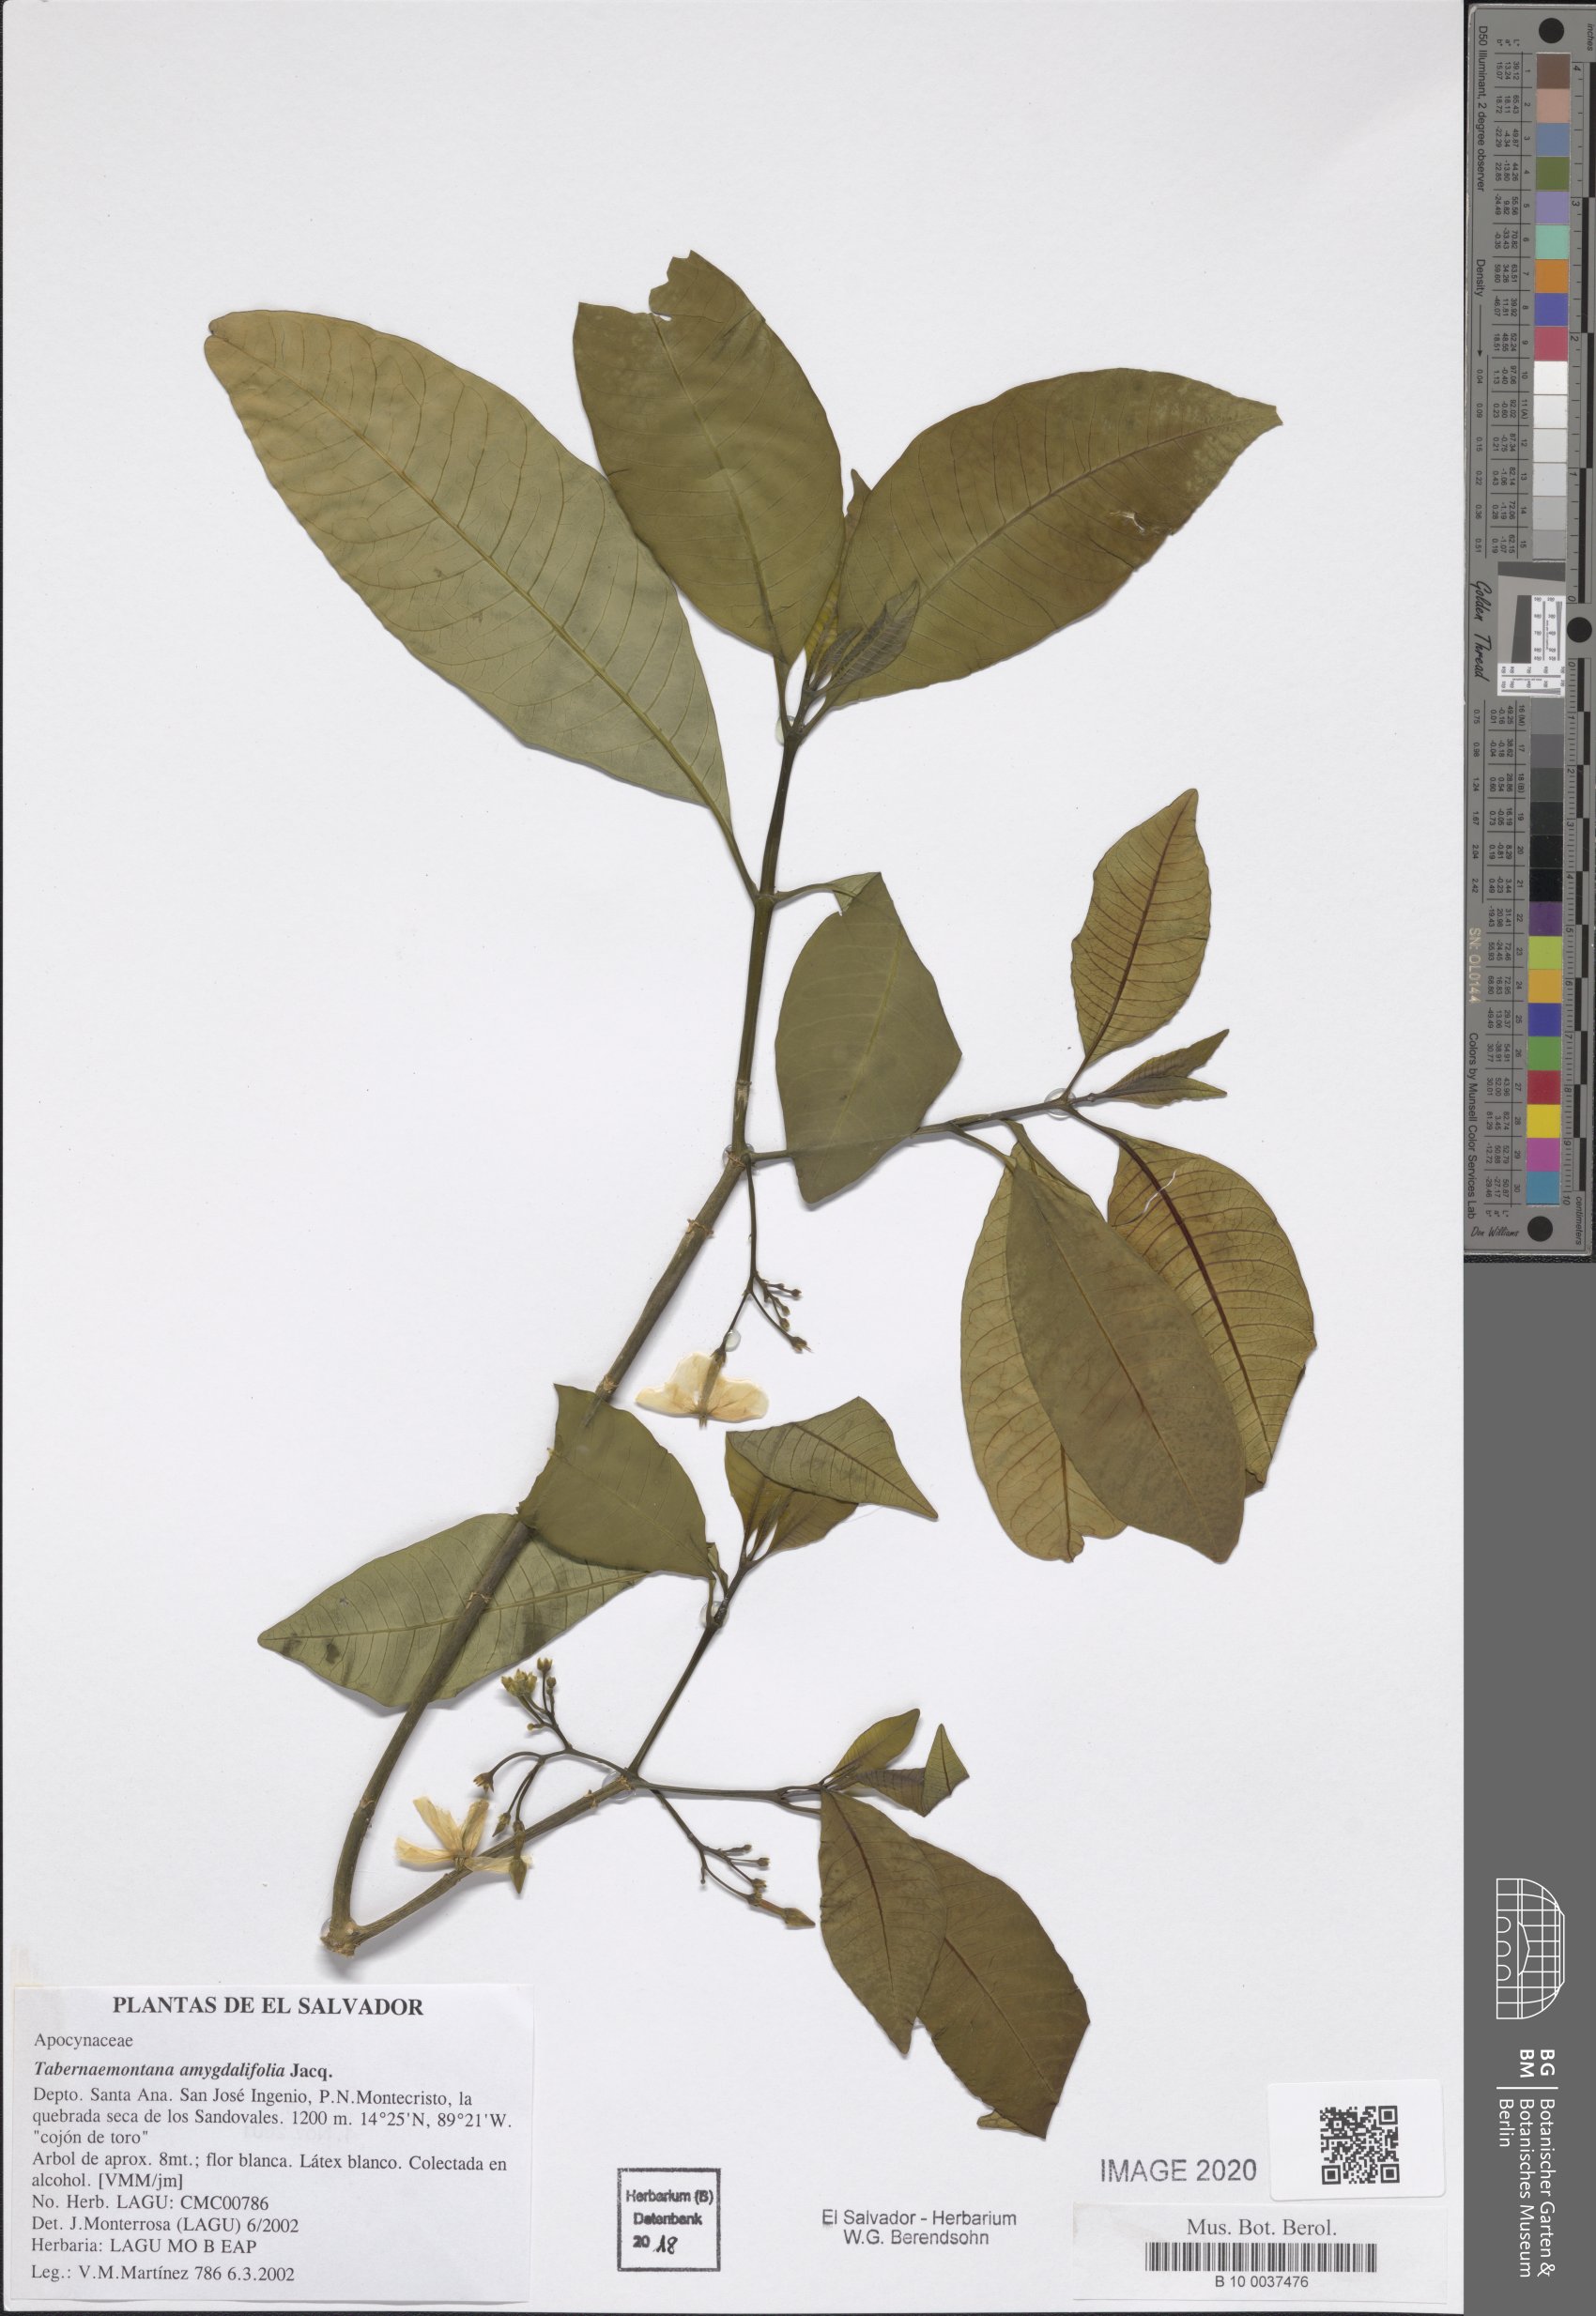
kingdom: Plantae
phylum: Tracheophyta
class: Magnoliopsida
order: Gentianales
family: Apocynaceae
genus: Tabernaemontana
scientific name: Tabernaemontana amygdalifolia
